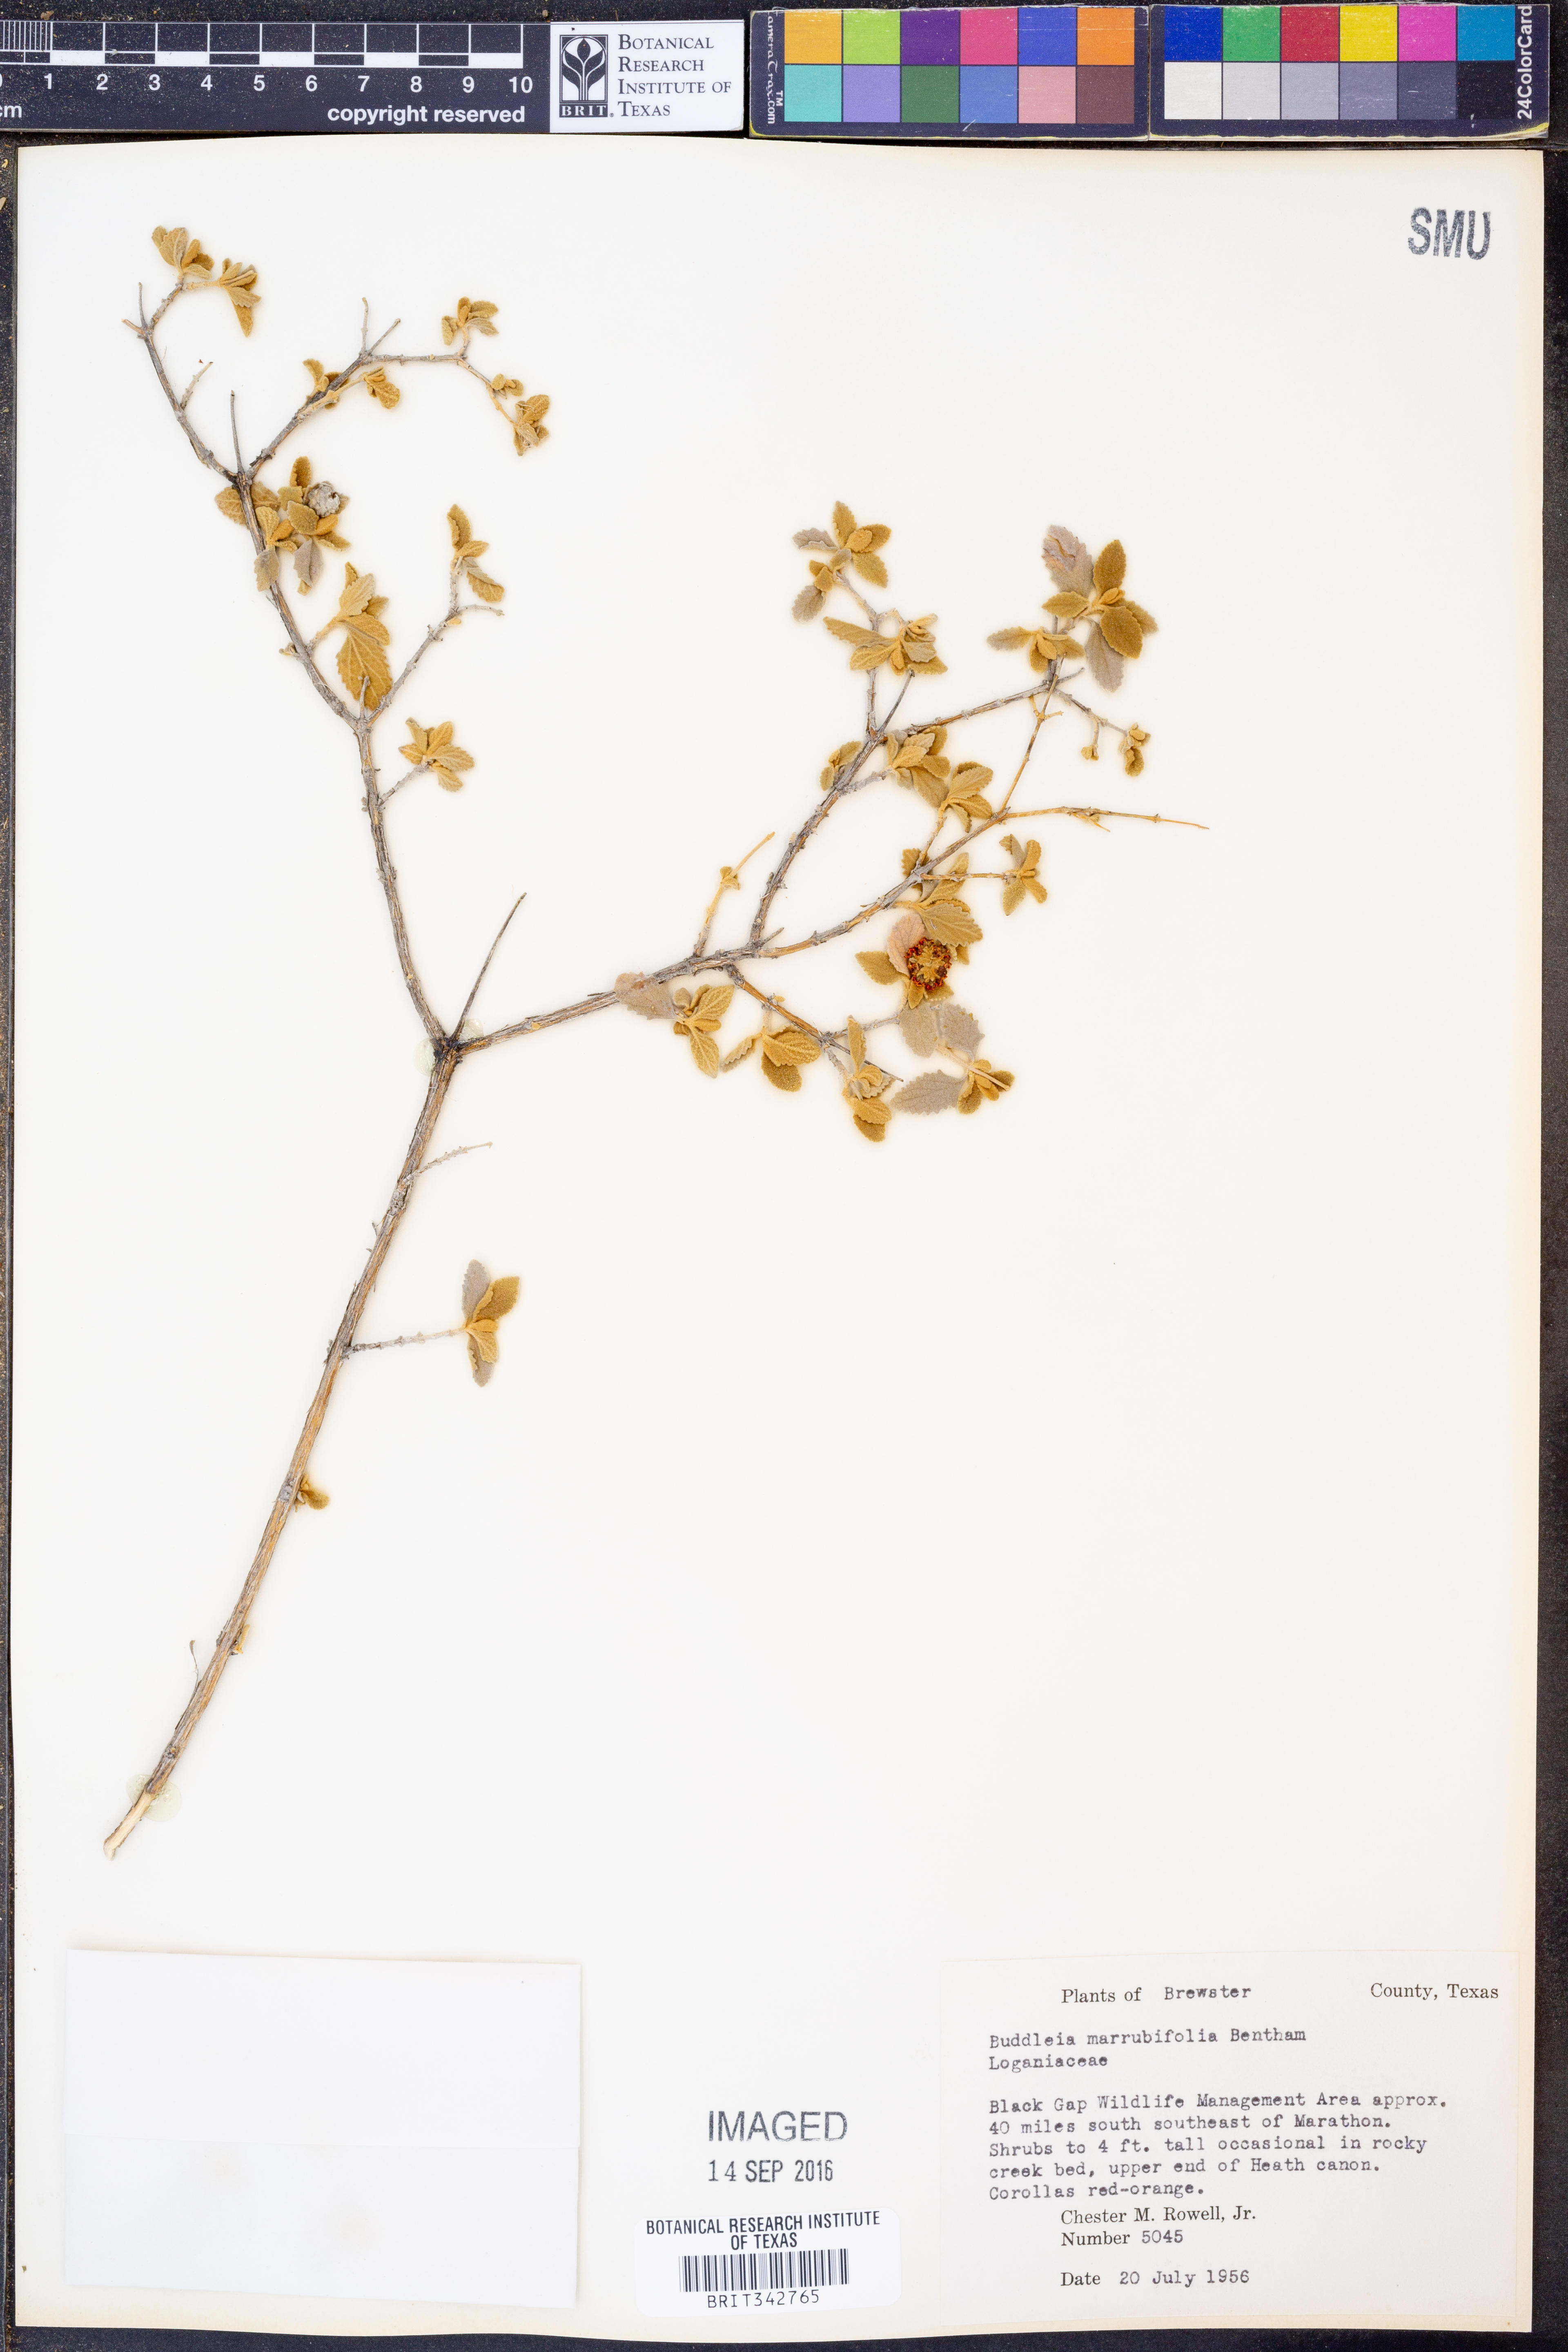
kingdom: Plantae
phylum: Tracheophyta
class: Magnoliopsida
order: Lamiales
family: Scrophulariaceae
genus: Buddleja
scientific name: Buddleja marrubiifolia
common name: Woolly butterfly-bush
